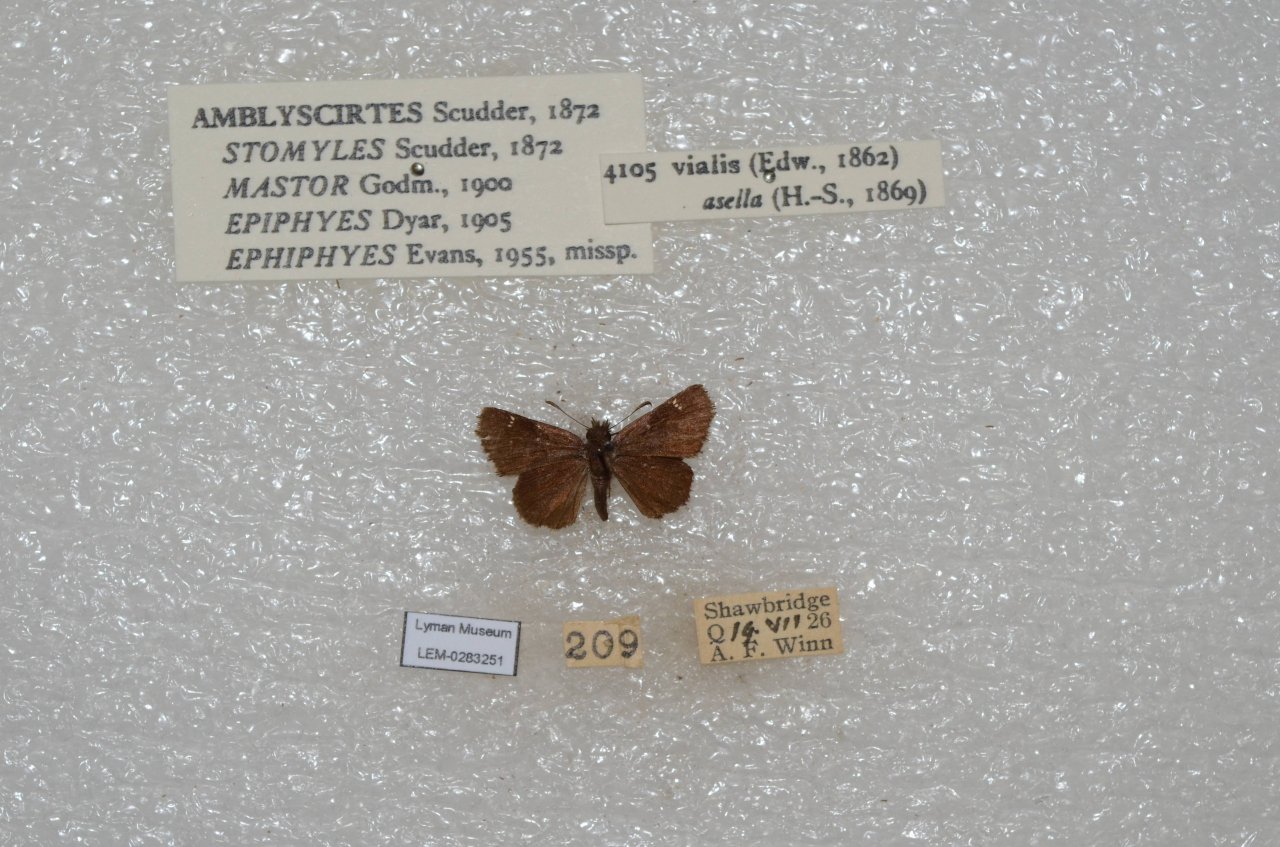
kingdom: Animalia
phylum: Arthropoda
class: Insecta
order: Lepidoptera
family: Hesperiidae
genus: Mastor
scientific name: Mastor vialis
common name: Common Roadside-Skipper
